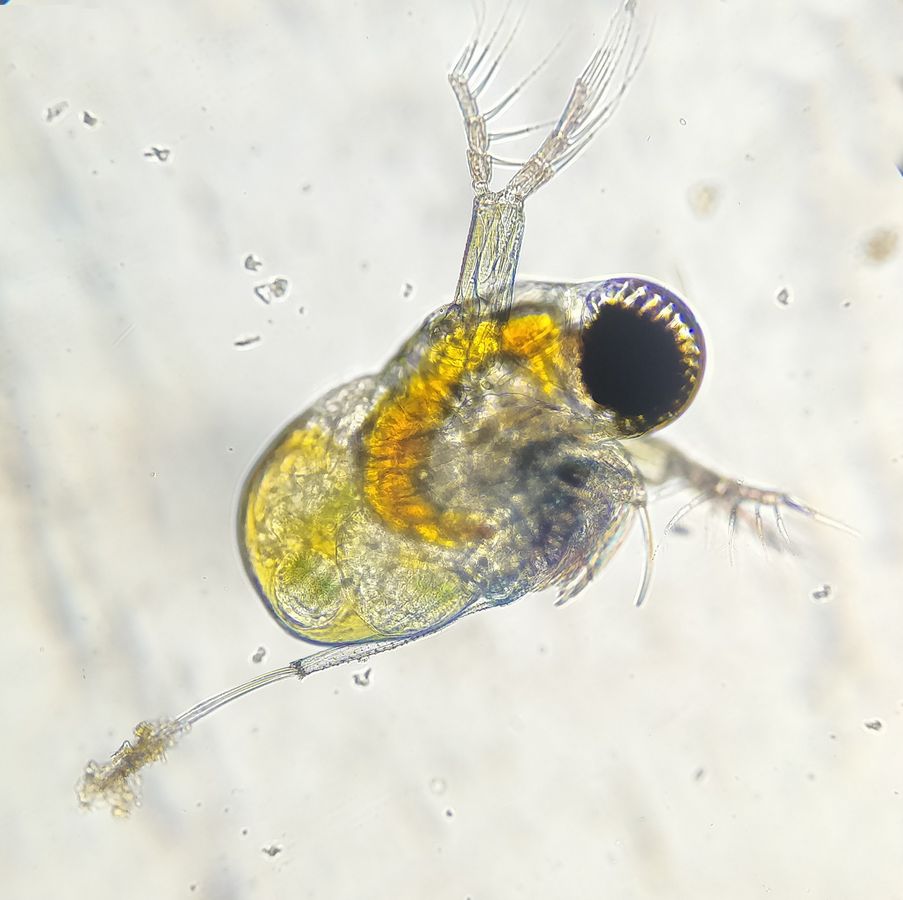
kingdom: Animalia
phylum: Arthropoda
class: Branchiopoda
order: Diplostraca
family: Polyphemidae
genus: Polyphemus
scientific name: Polyphemus pediculus
